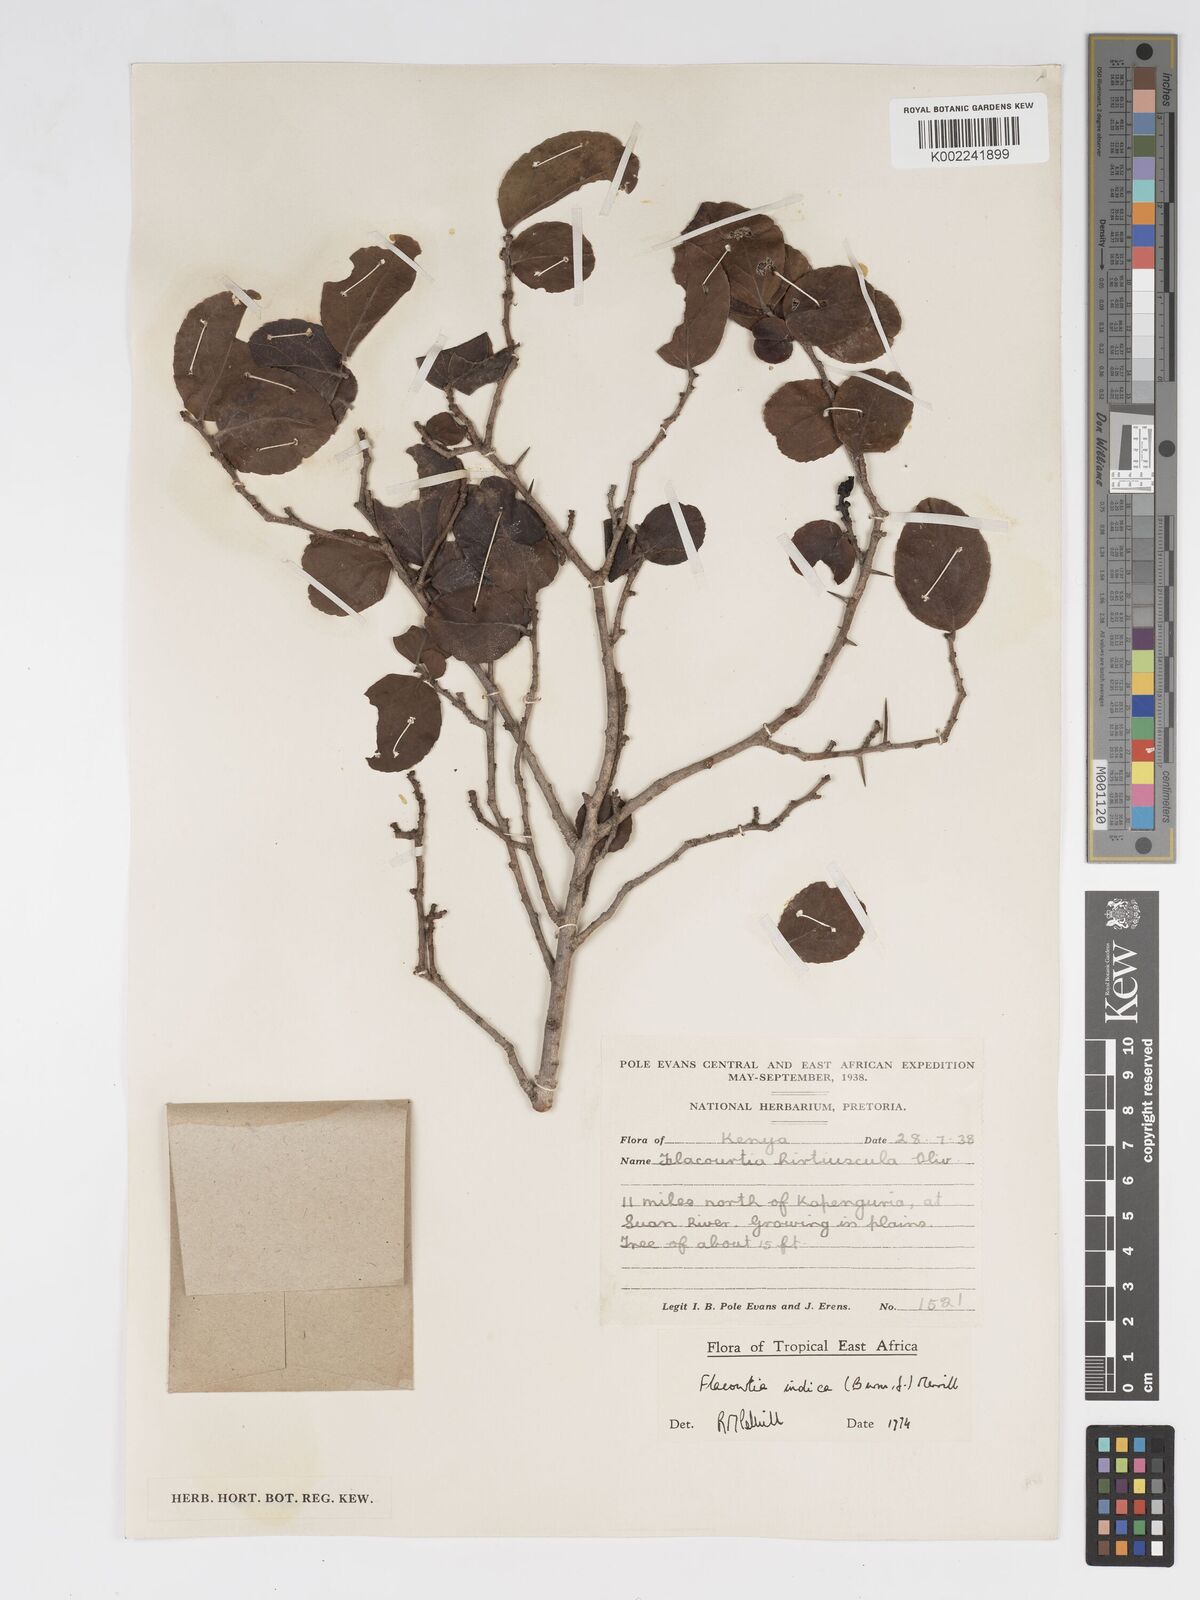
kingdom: Plantae
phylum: Tracheophyta
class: Magnoliopsida
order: Malpighiales
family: Salicaceae
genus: Flacourtia
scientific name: Flacourtia indica
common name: Governor's plum
